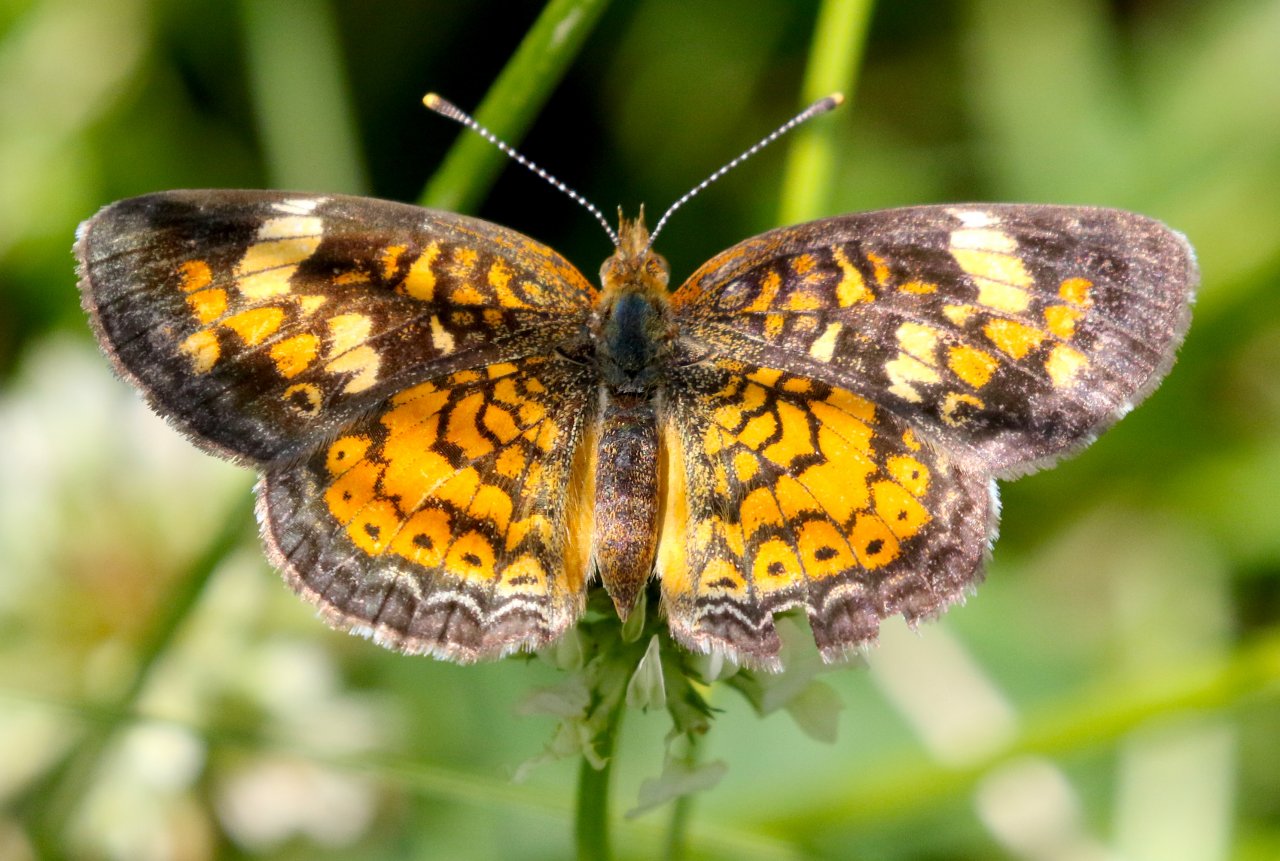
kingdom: Animalia
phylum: Arthropoda
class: Insecta
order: Lepidoptera
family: Nymphalidae
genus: Phyciodes
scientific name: Phyciodes tharos
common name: Northern Crescent
